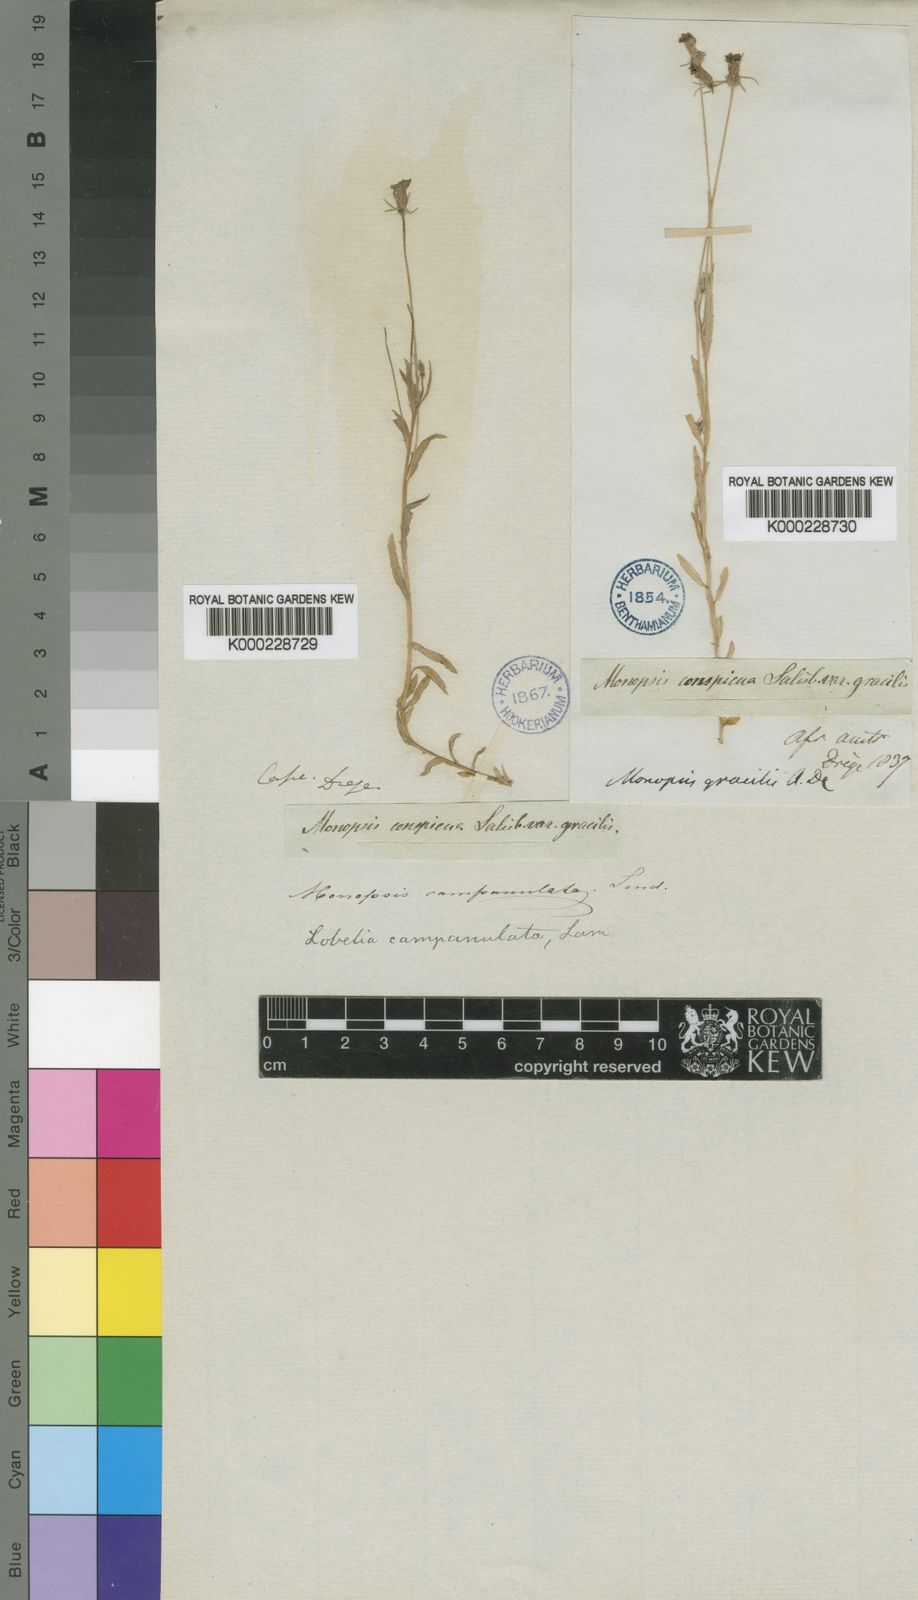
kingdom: Plantae
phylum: Tracheophyta
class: Magnoliopsida
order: Asterales
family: Campanulaceae
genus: Monopsis
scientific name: Monopsis debilis
